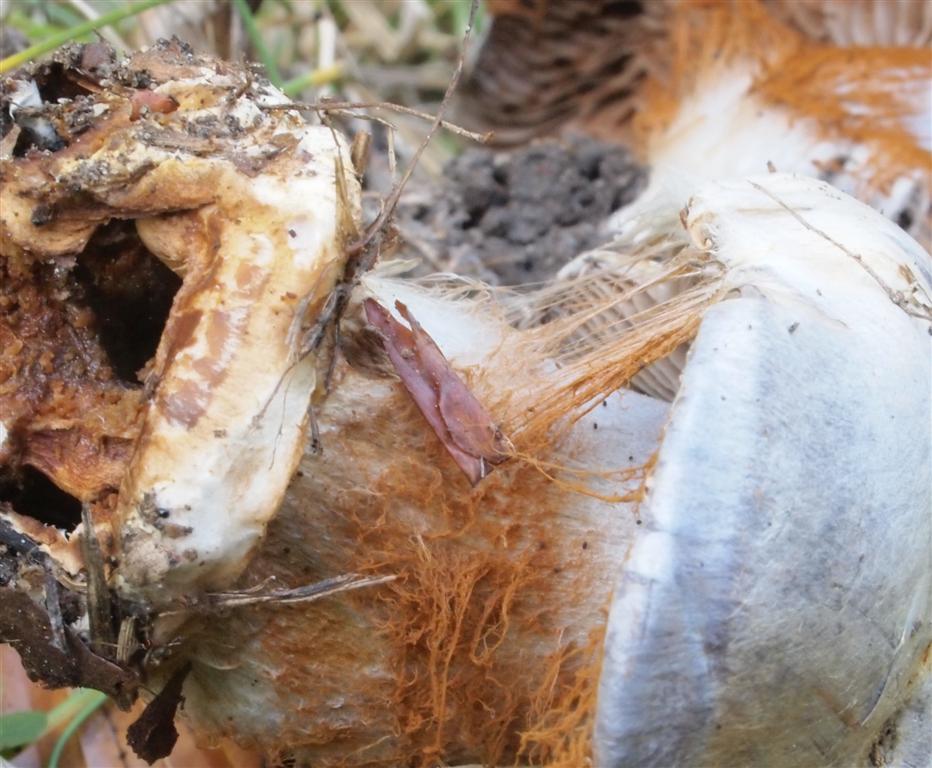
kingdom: Fungi
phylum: Basidiomycota
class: Agaricomycetes
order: Agaricales
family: Cortinariaceae
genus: Cortinarius
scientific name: Cortinarius caerulescens
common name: blåkødet slørhat
